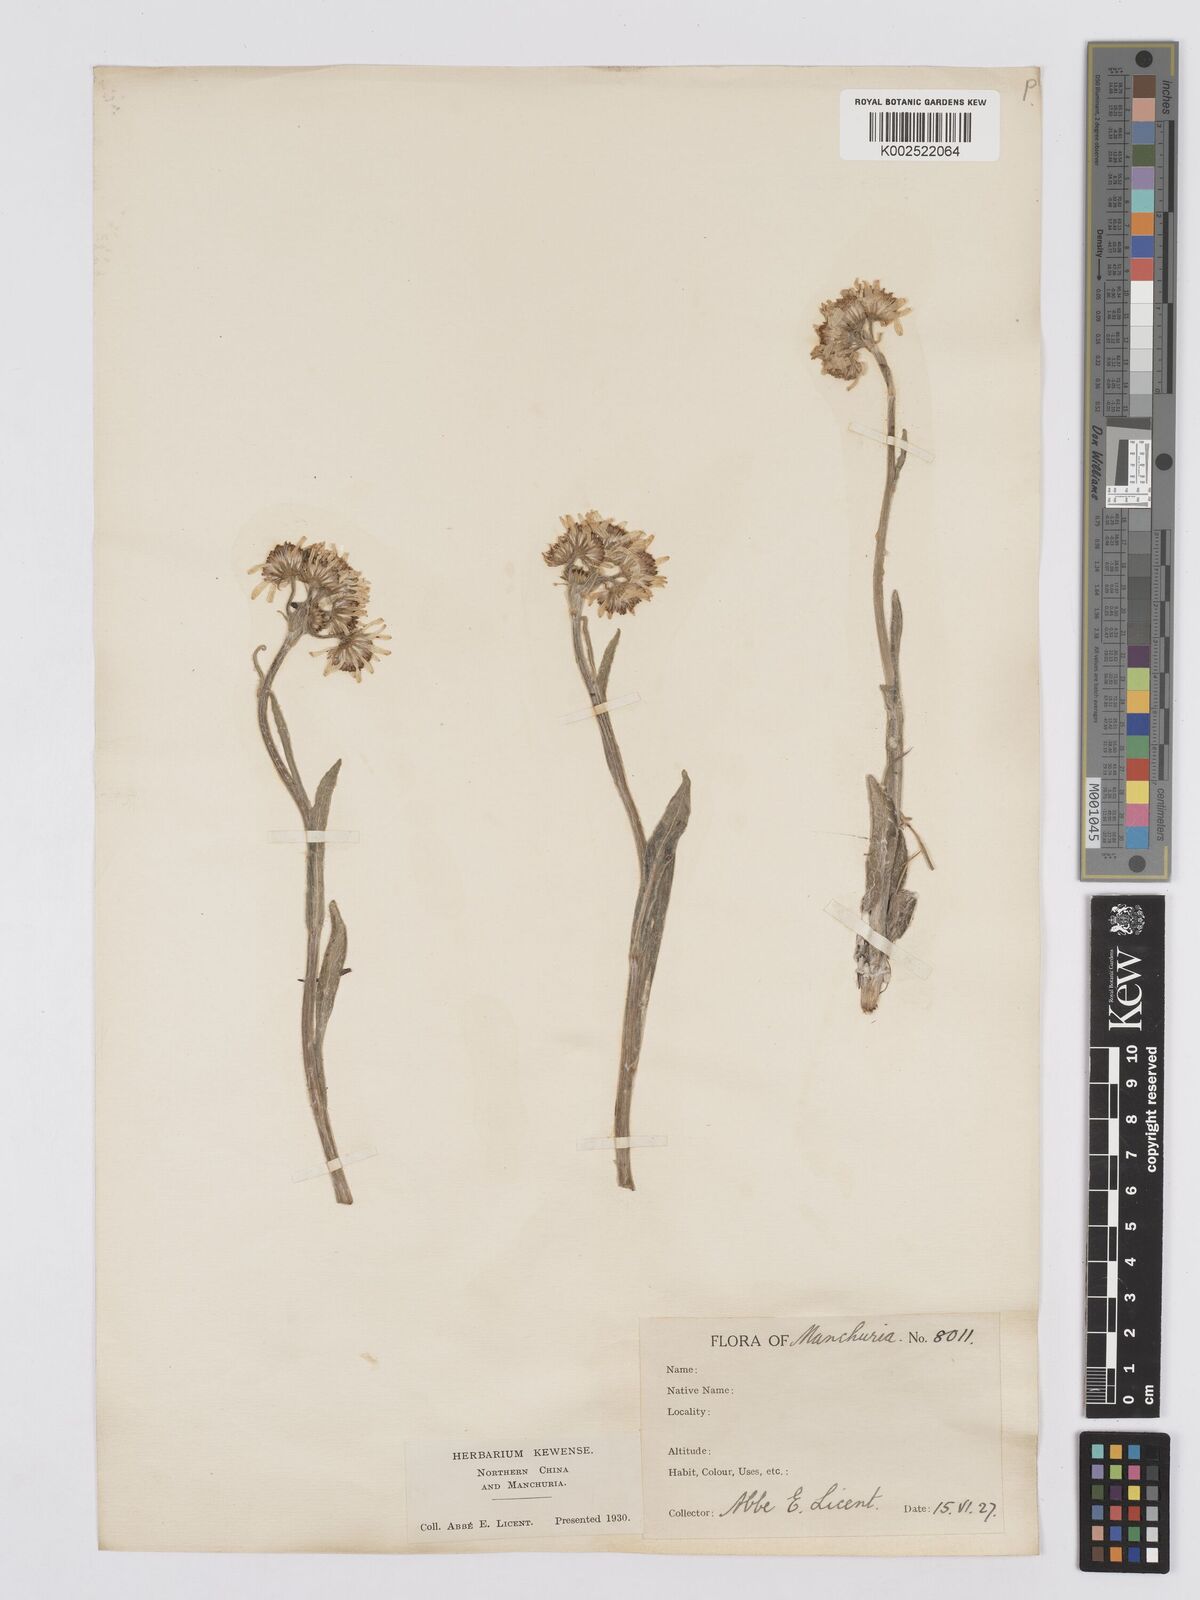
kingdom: Plantae
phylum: Tracheophyta
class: Magnoliopsida
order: Asterales
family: Asteraceae
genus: Tephroseris
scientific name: Tephroseris kirilowii
